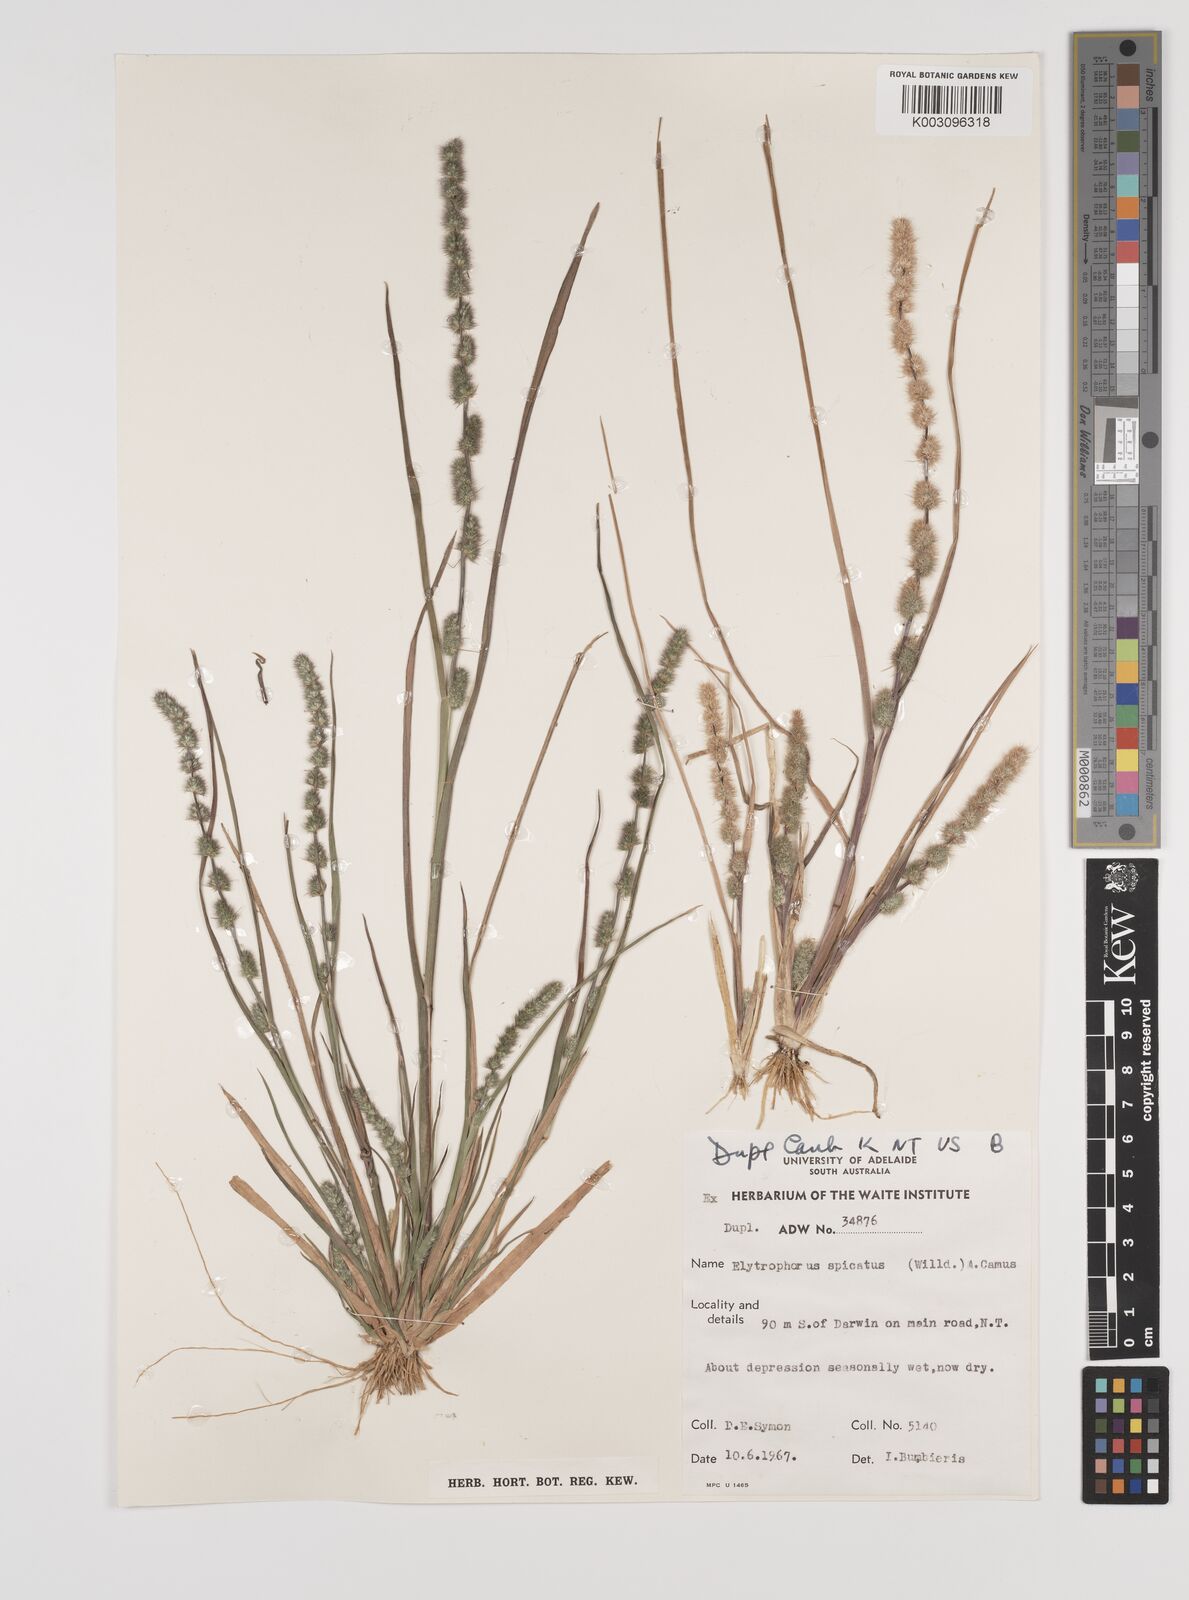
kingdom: Plantae
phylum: Tracheophyta
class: Liliopsida
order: Poales
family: Poaceae
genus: Elytrophorus
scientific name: Elytrophorus spicatus
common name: Spike grass
